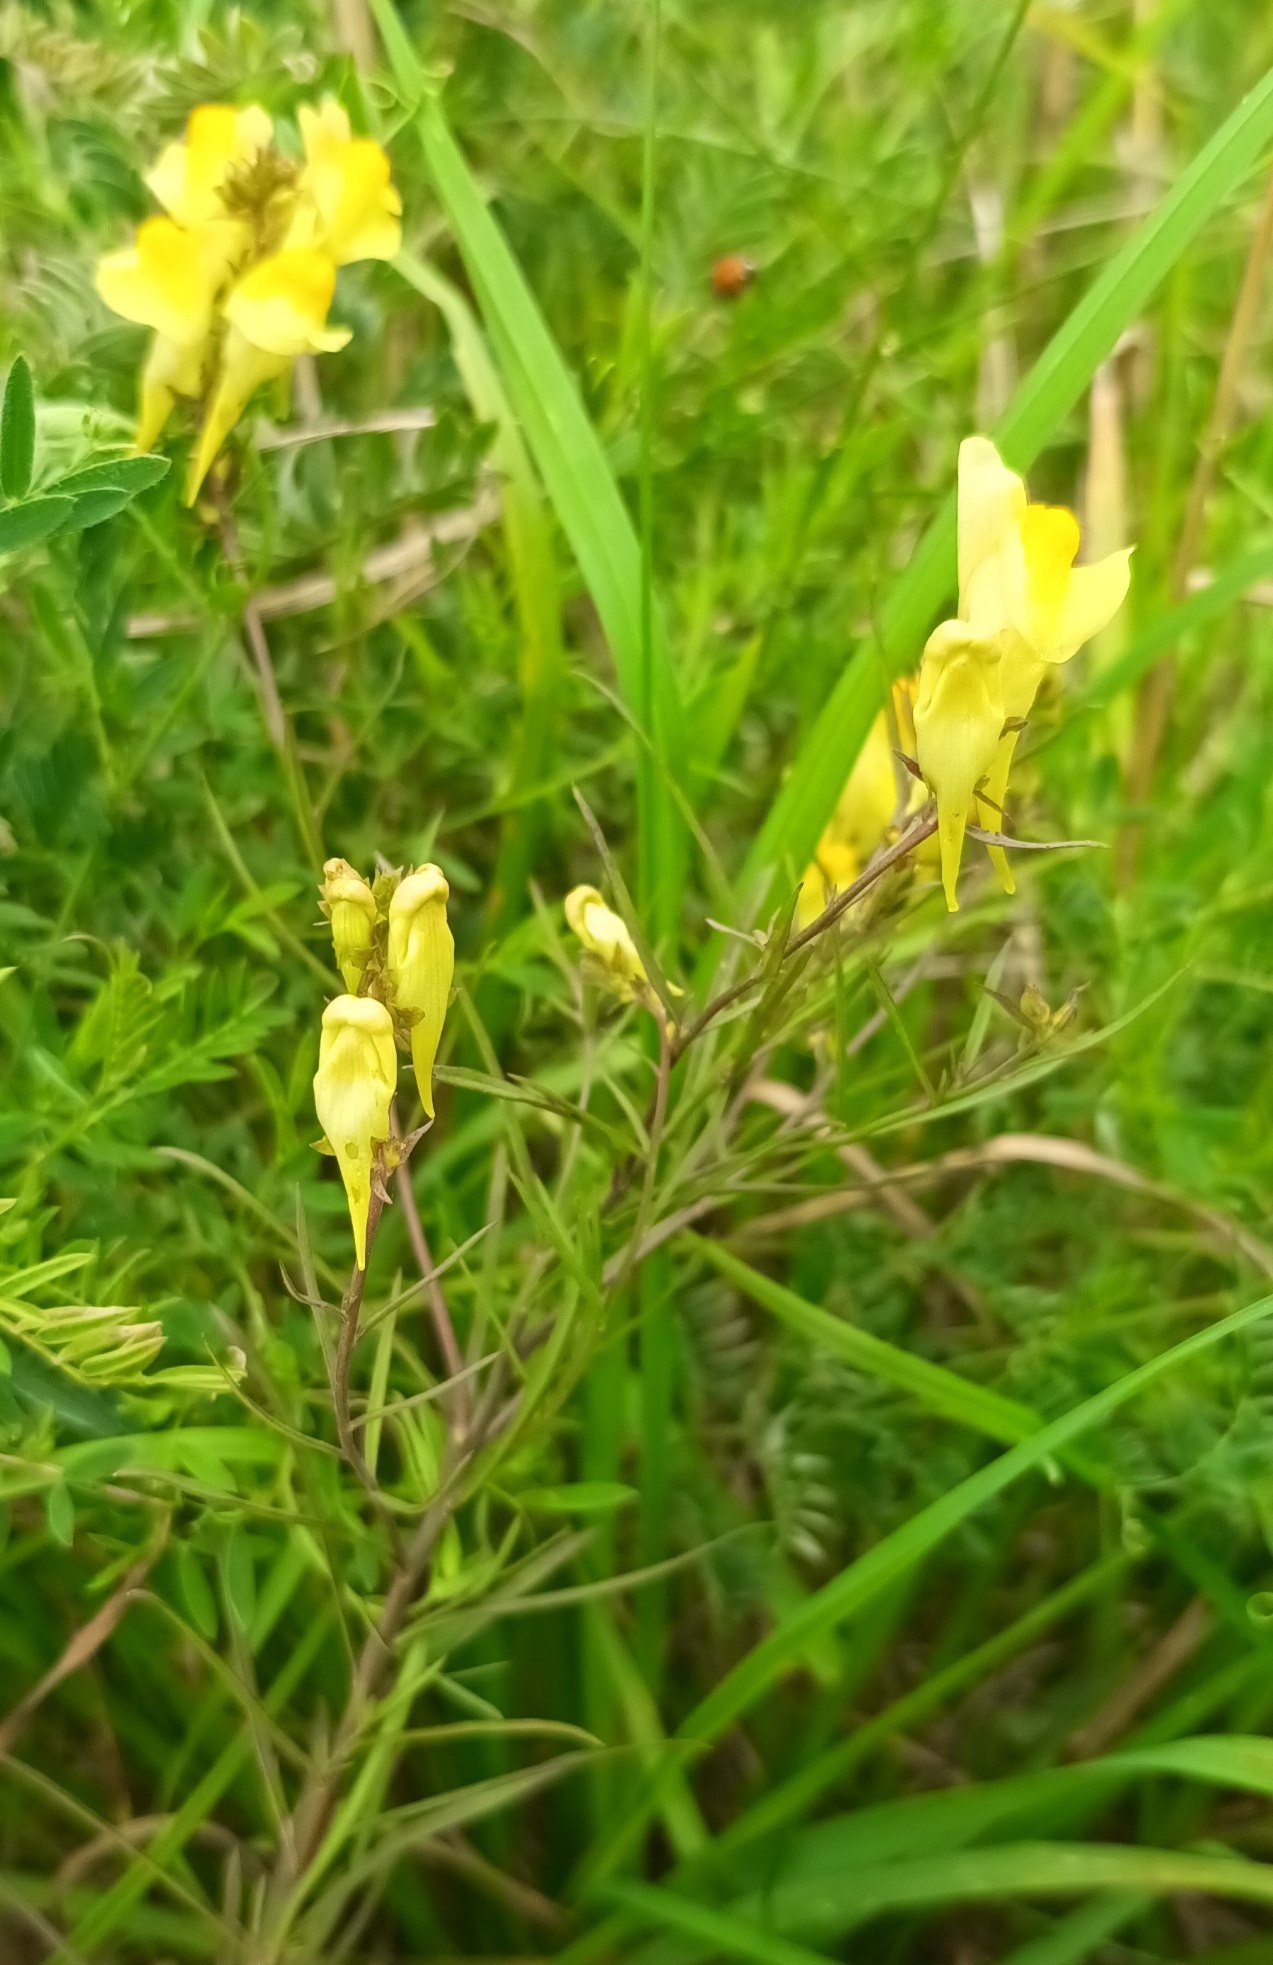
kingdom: Plantae
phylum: Tracheophyta
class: Magnoliopsida
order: Lamiales
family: Plantaginaceae
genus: Linaria
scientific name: Linaria vulgaris
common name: Almindelig torskemund
